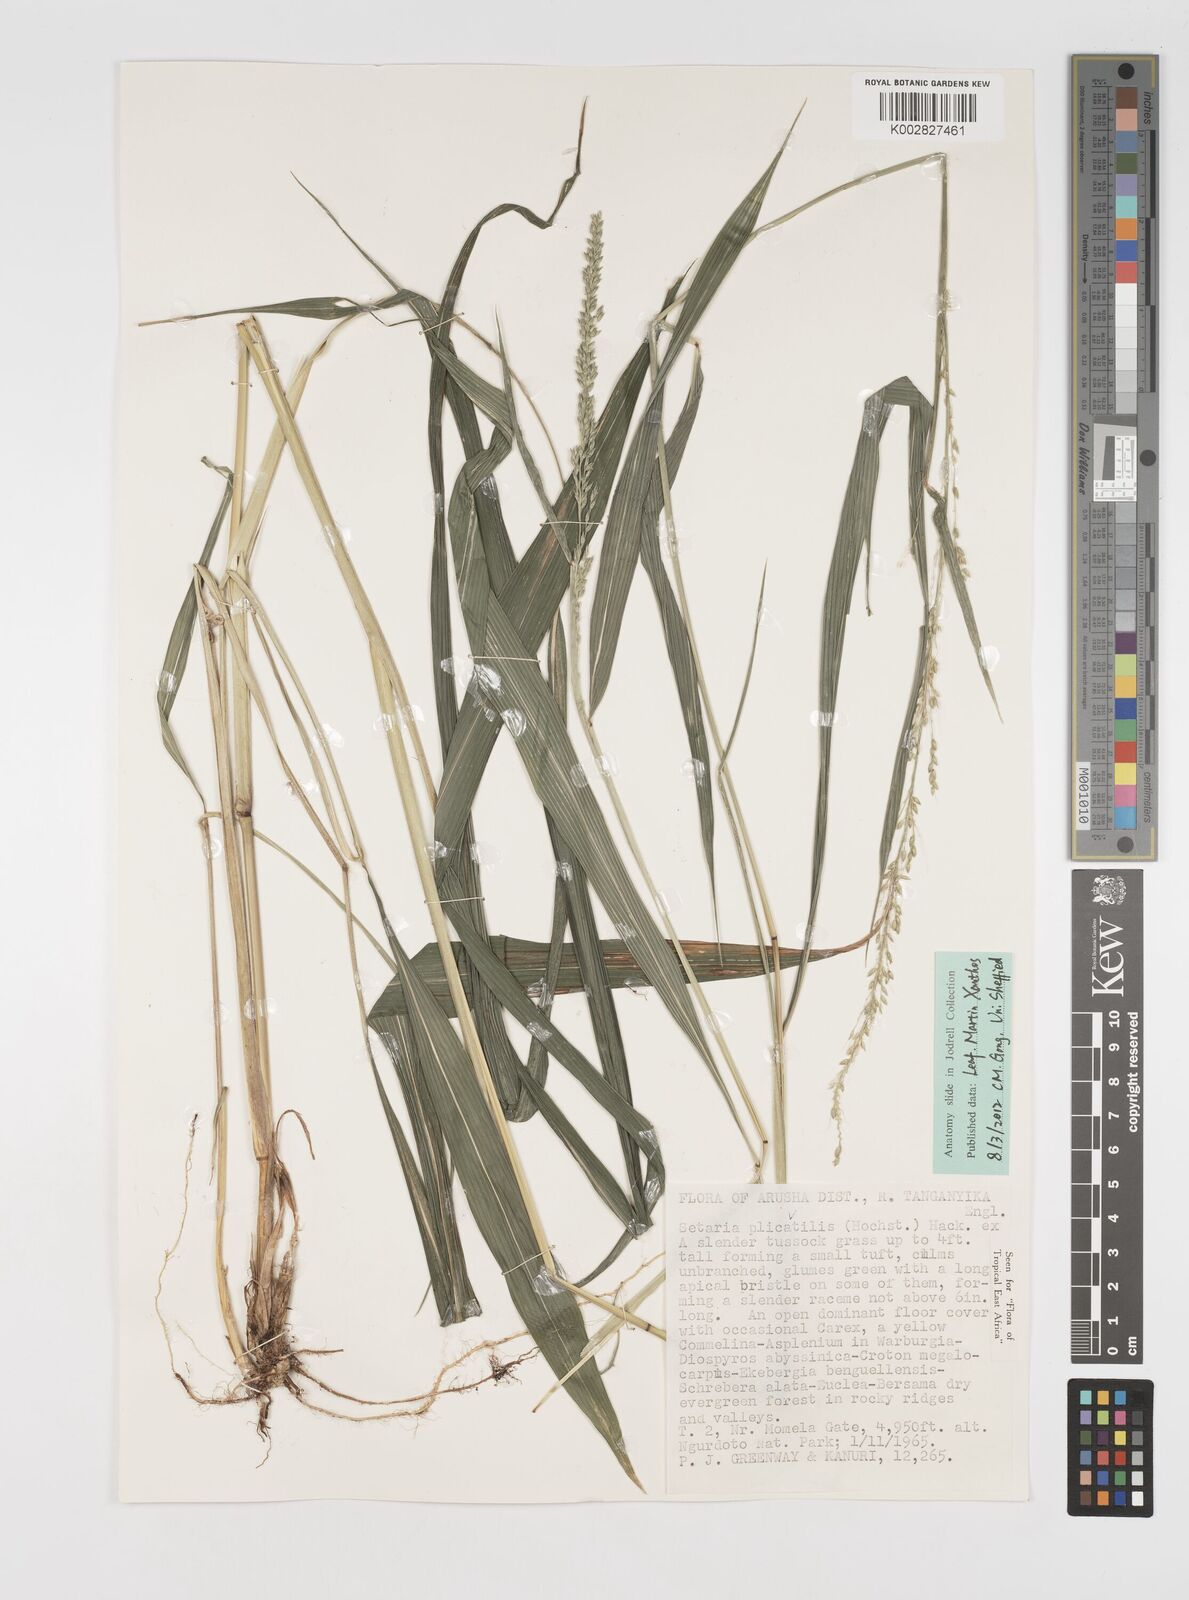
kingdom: Plantae
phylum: Tracheophyta
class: Liliopsida
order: Poales
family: Poaceae
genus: Setaria
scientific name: Setaria megaphylla
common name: Bigleaf bristlegrass
